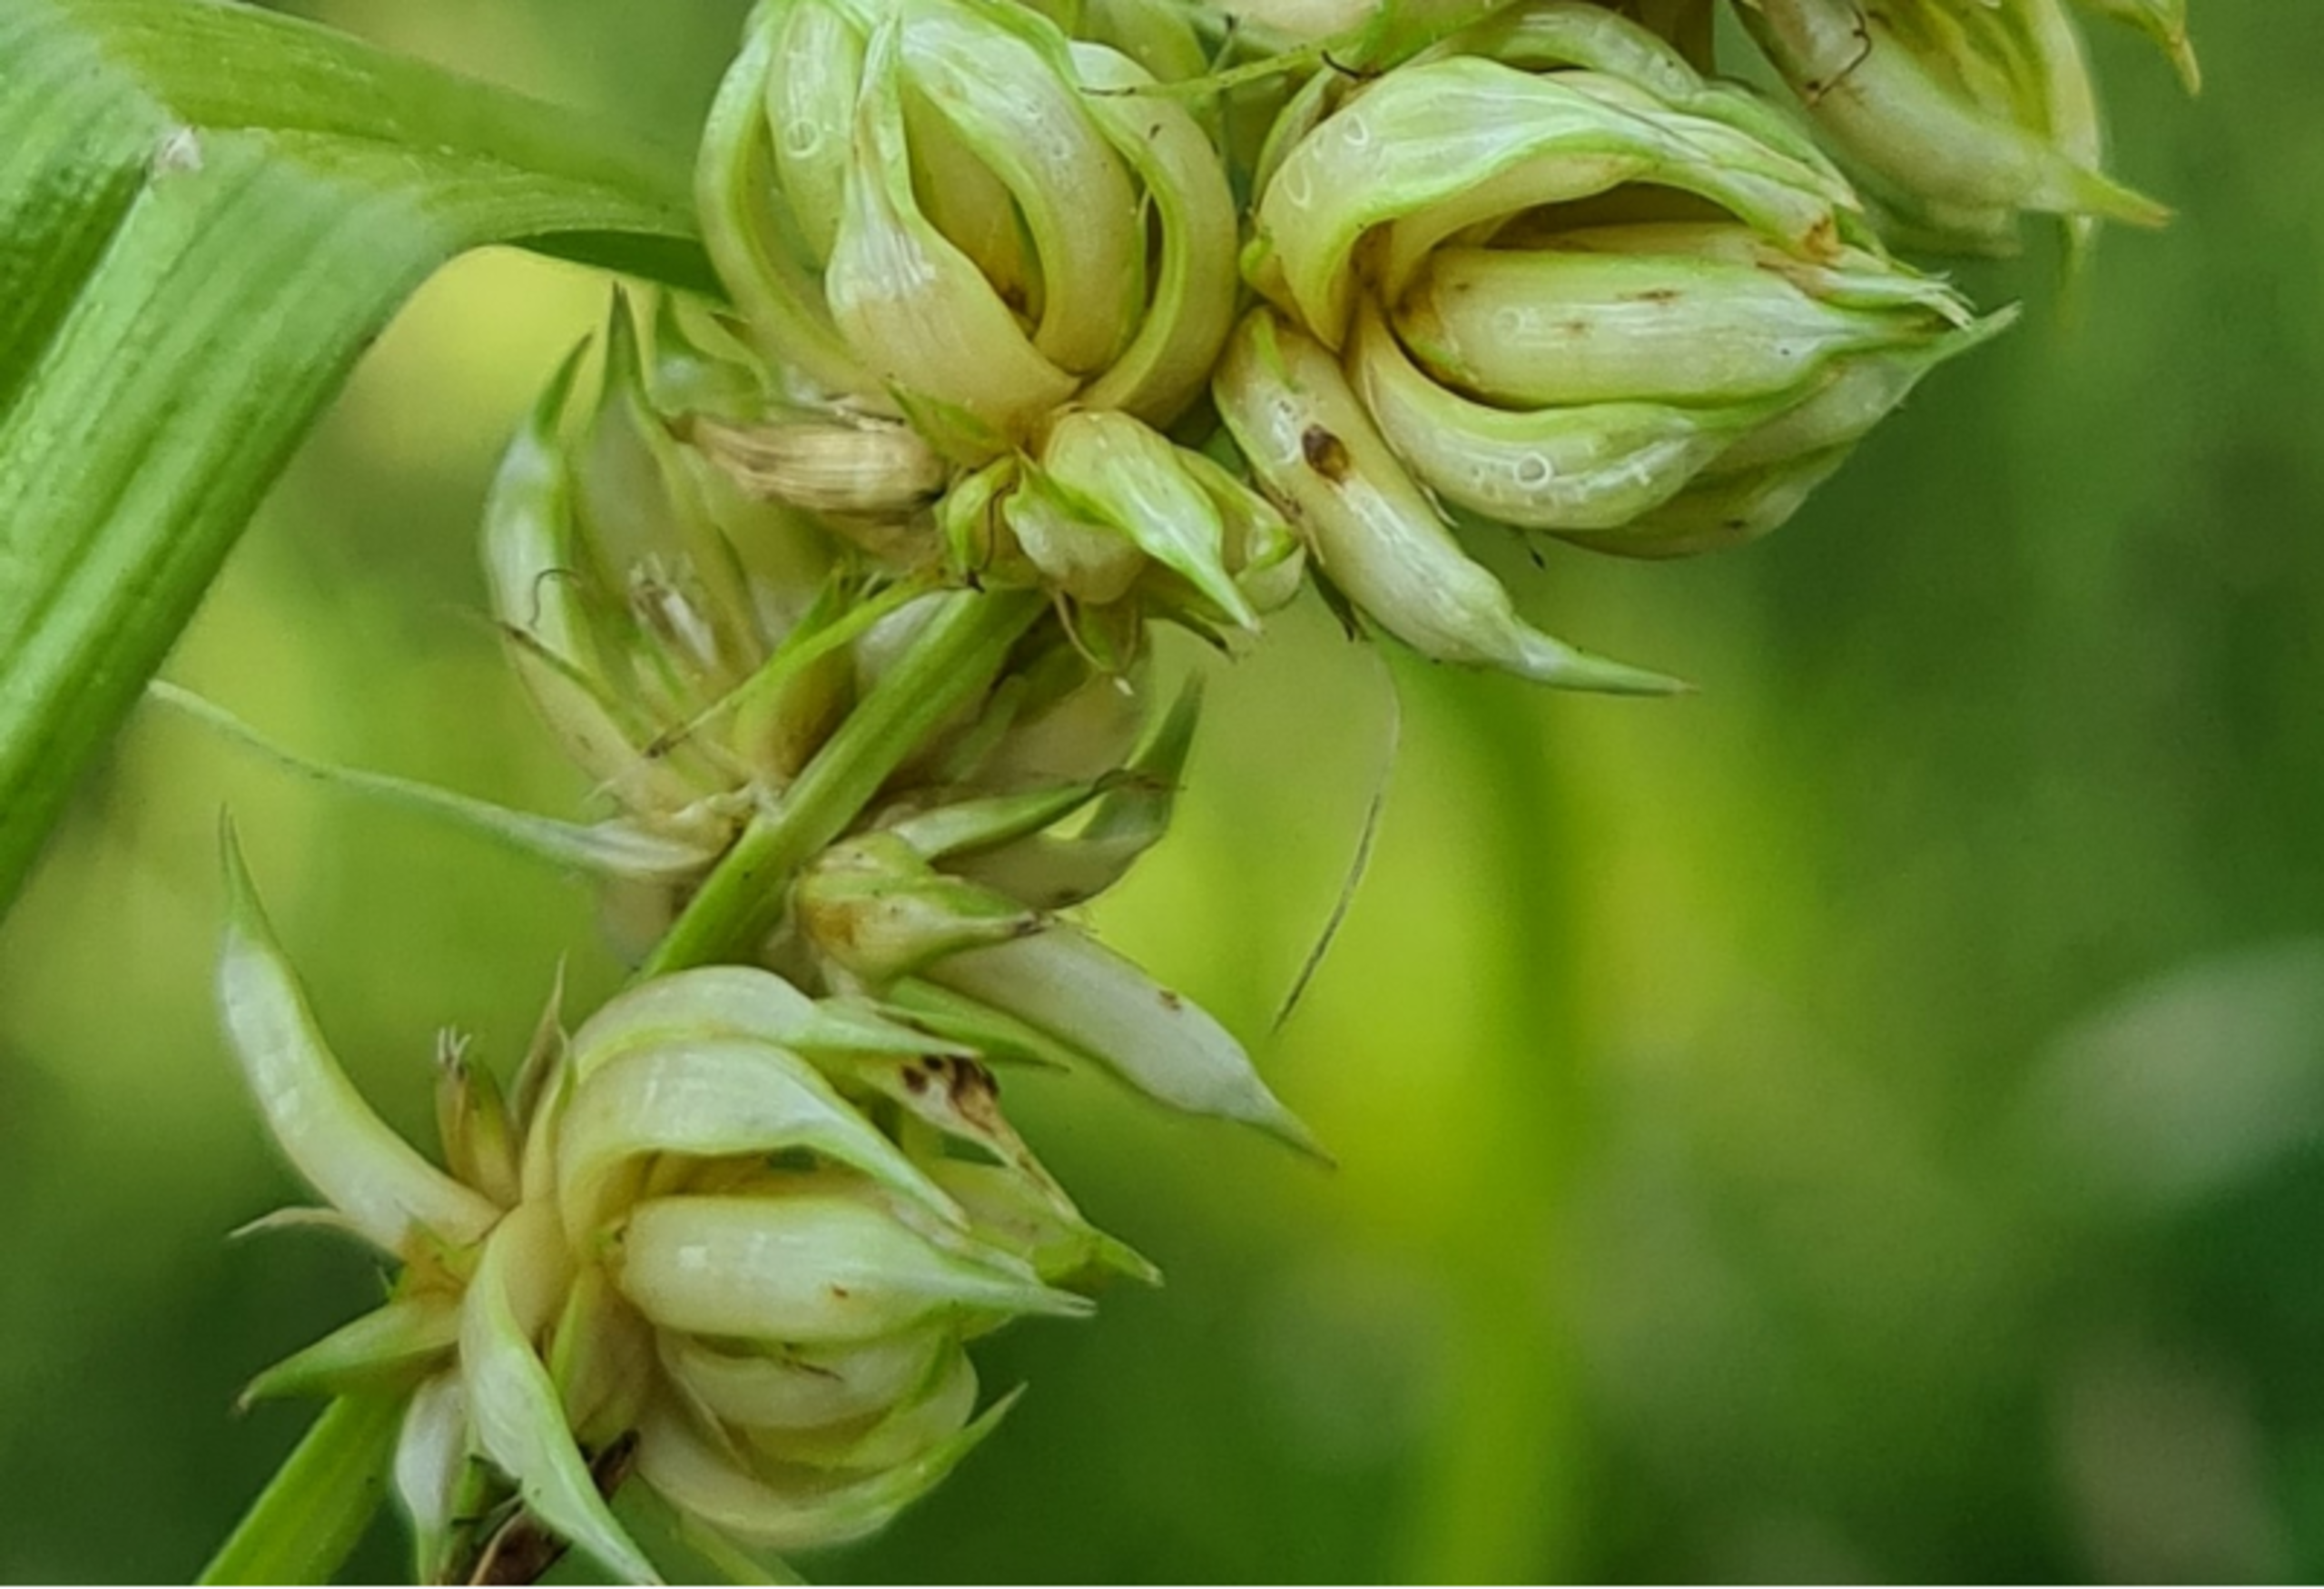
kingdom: Animalia
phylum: Arthropoda
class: Insecta
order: Diptera
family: Cecidomyiidae
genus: Dasineura
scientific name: Dasineura inflata
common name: Syltstargalmyg
